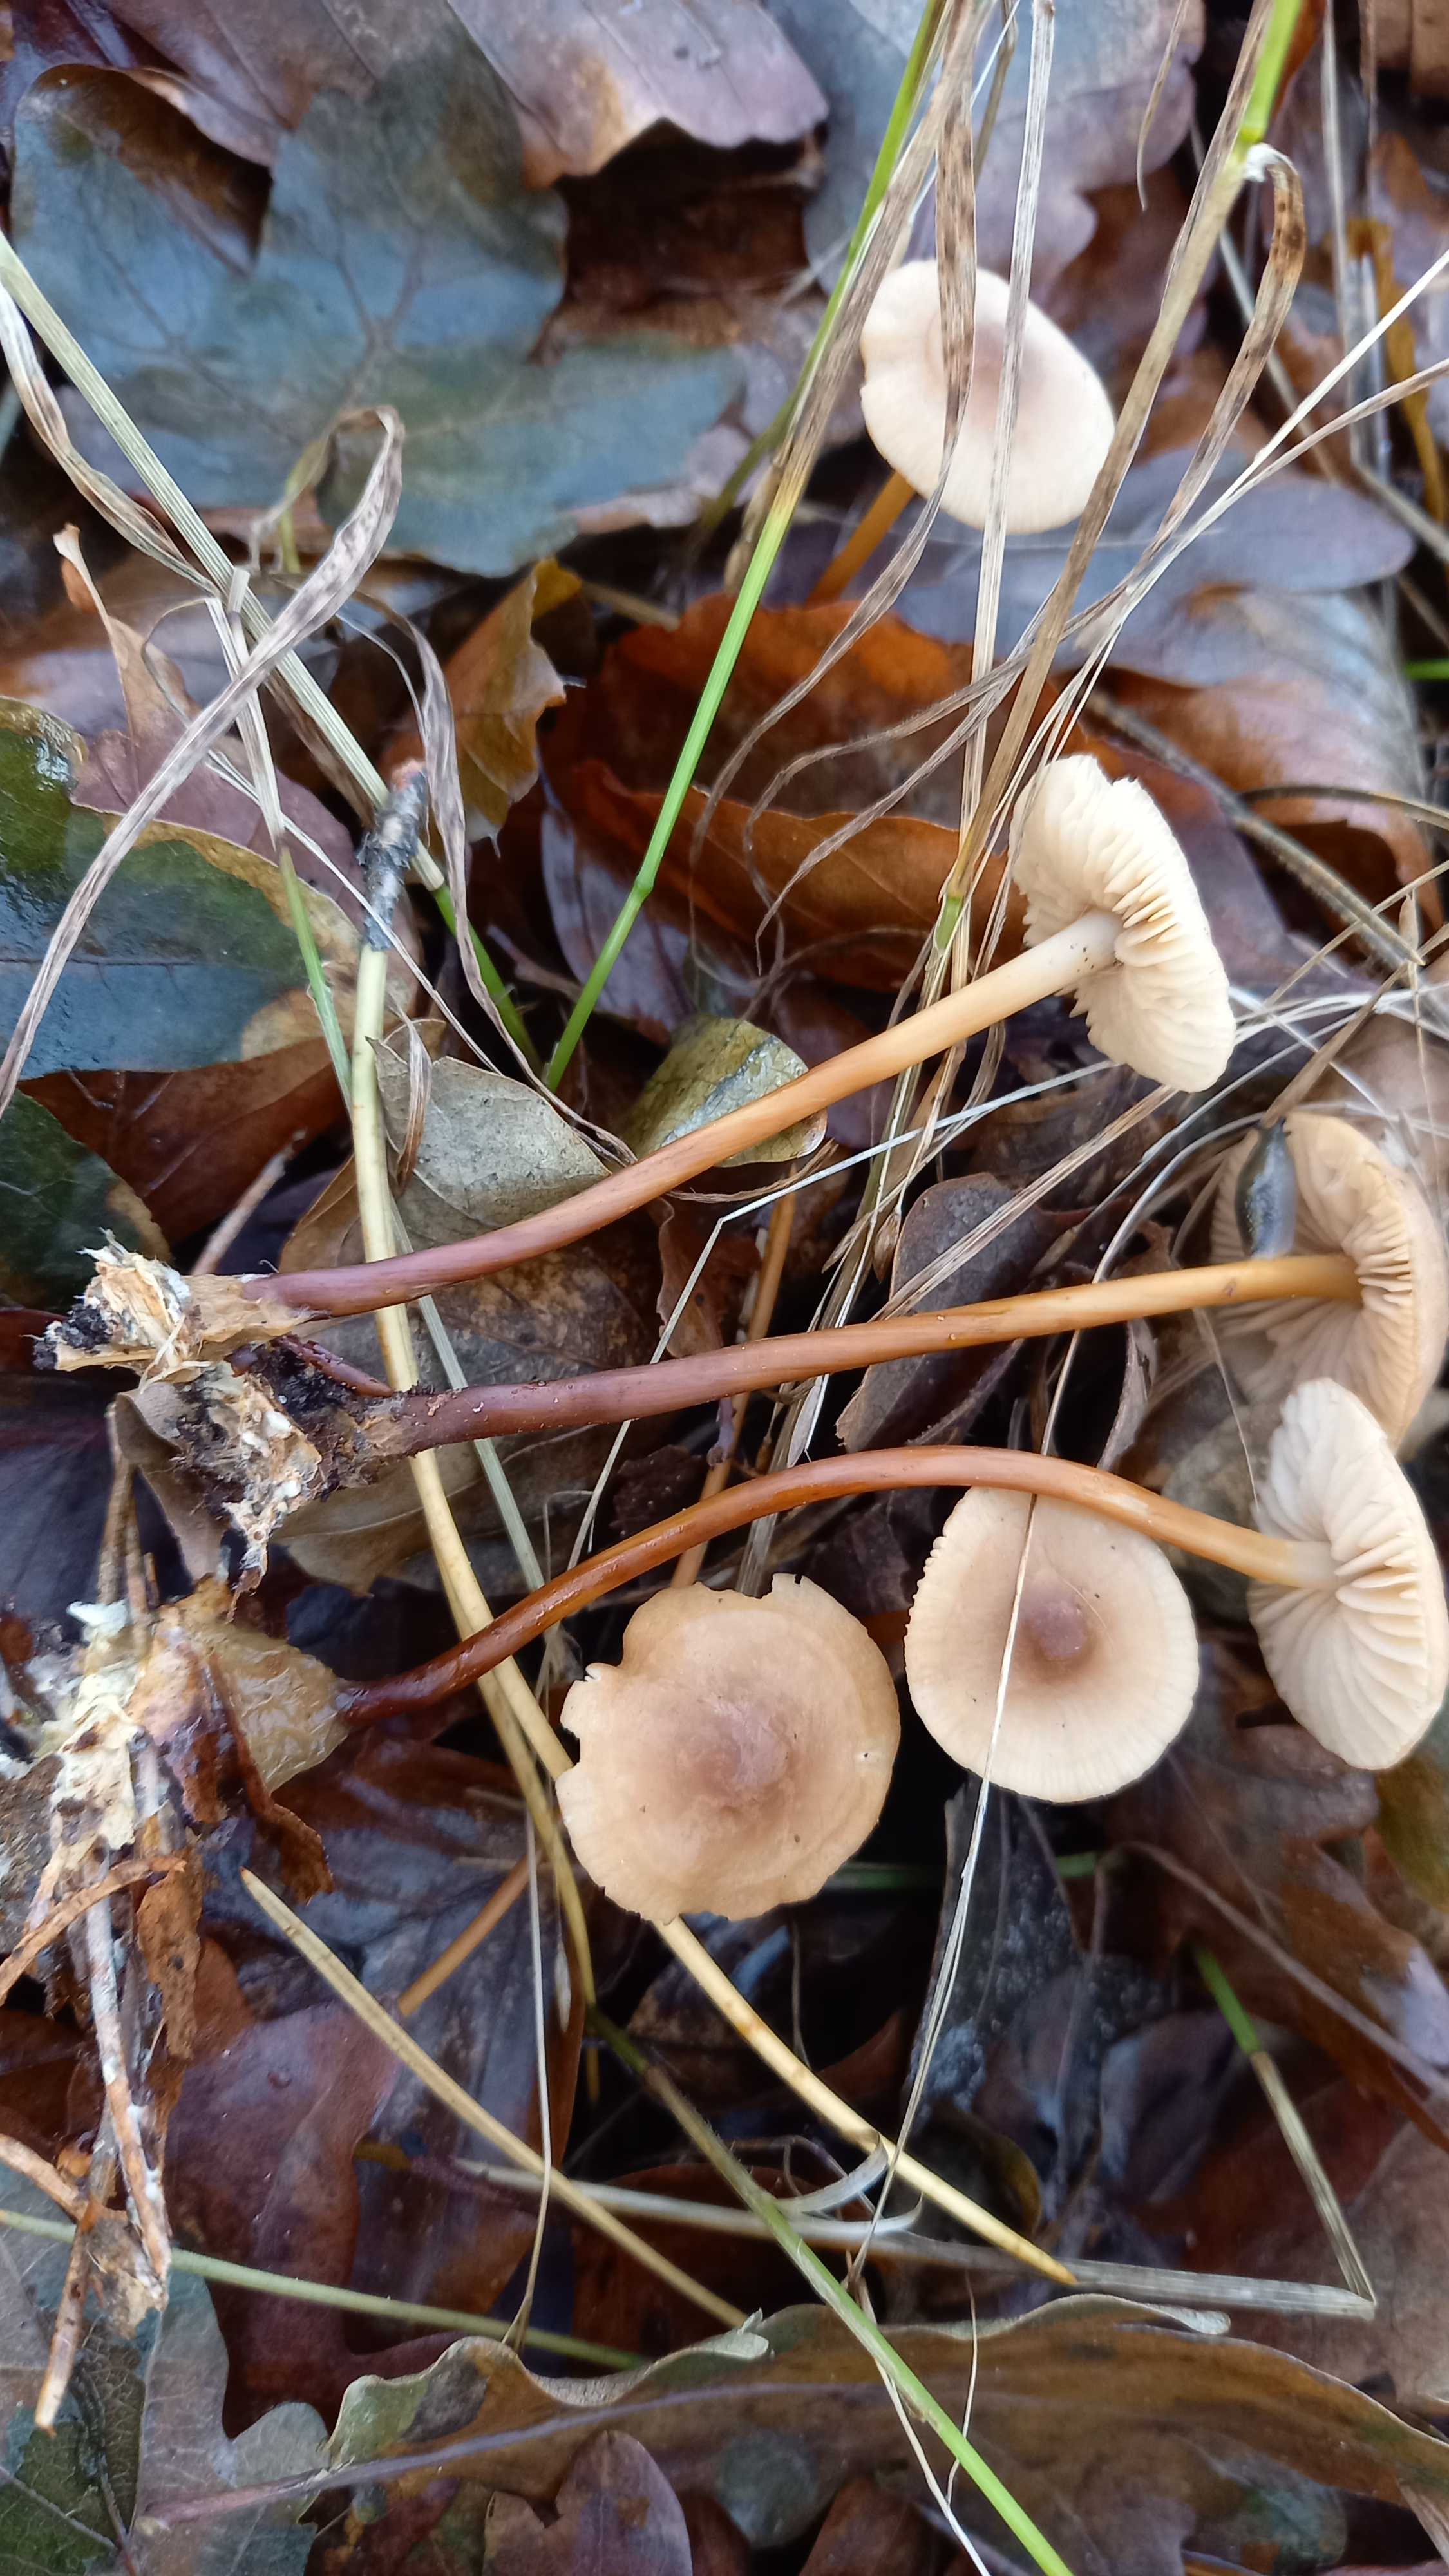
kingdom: Fungi
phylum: Basidiomycota
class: Agaricomycetes
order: Agaricales
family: Marasmiaceae
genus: Marasmius
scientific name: Marasmius cohaerens
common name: hornstokket bruskhat
